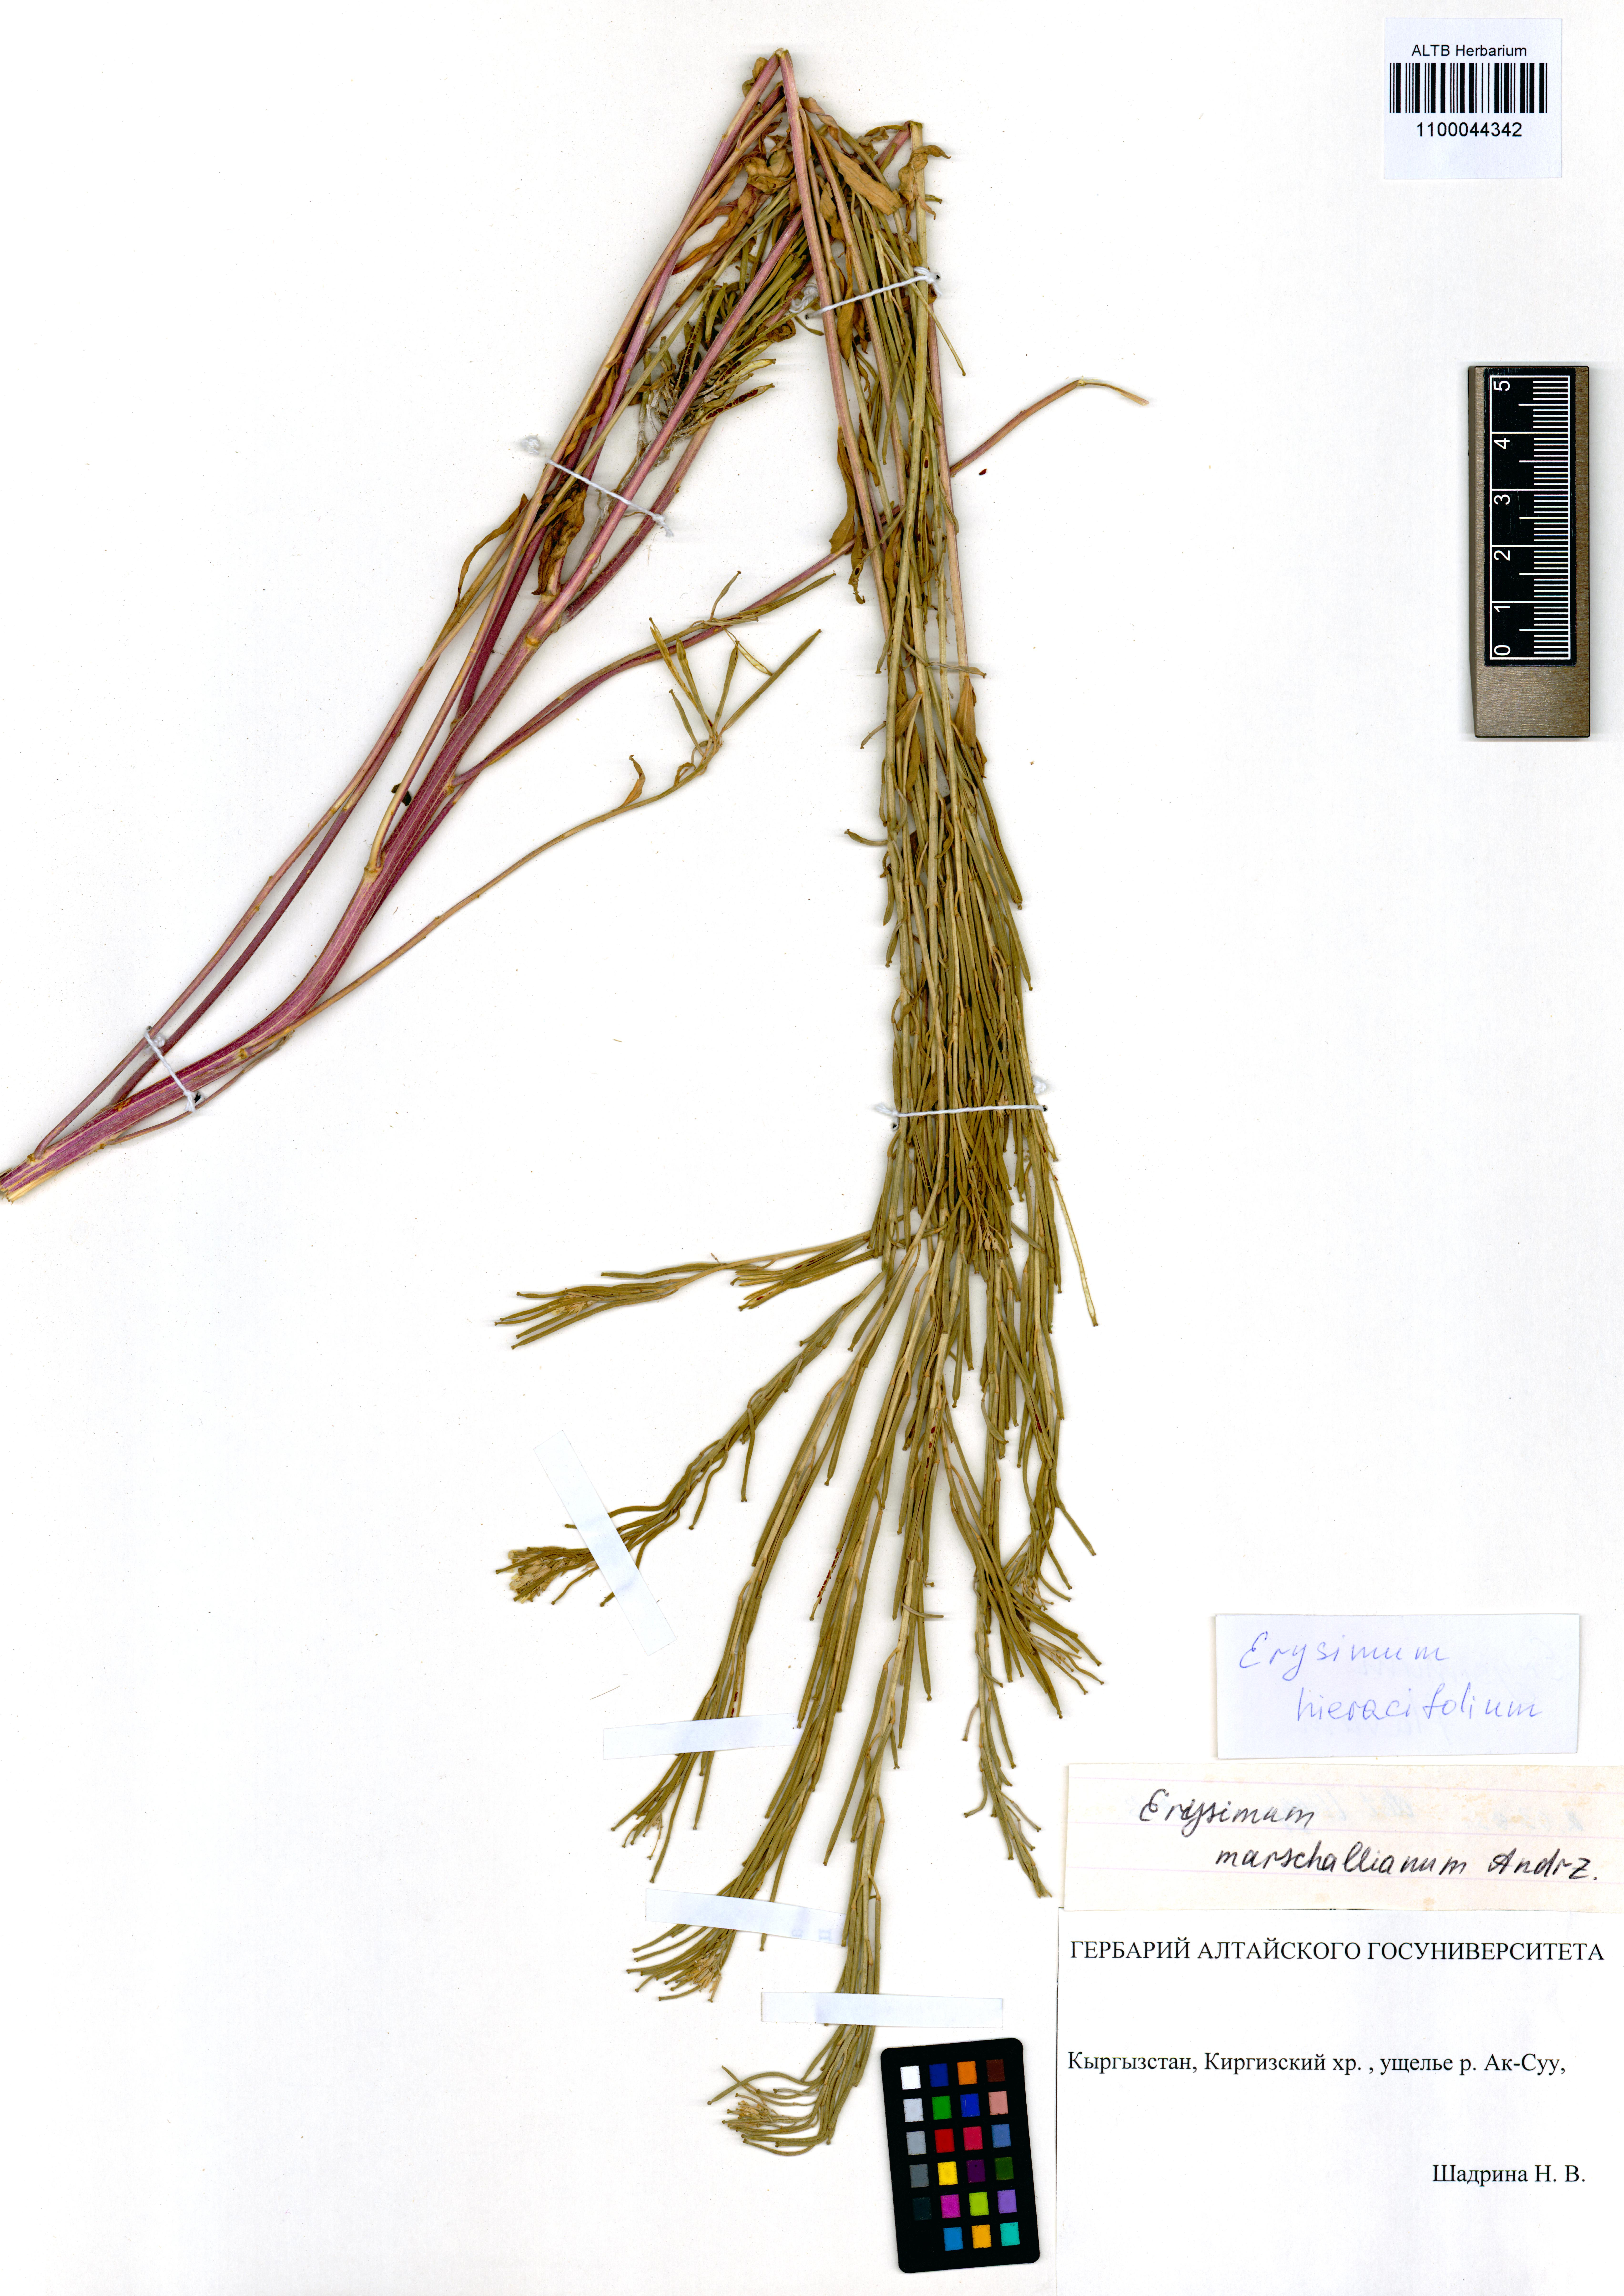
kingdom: Plantae
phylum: Tracheophyta
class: Magnoliopsida
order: Brassicales
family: Brassicaceae
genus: Erysimum
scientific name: Erysimum hieraciifolium
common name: European wallflower
